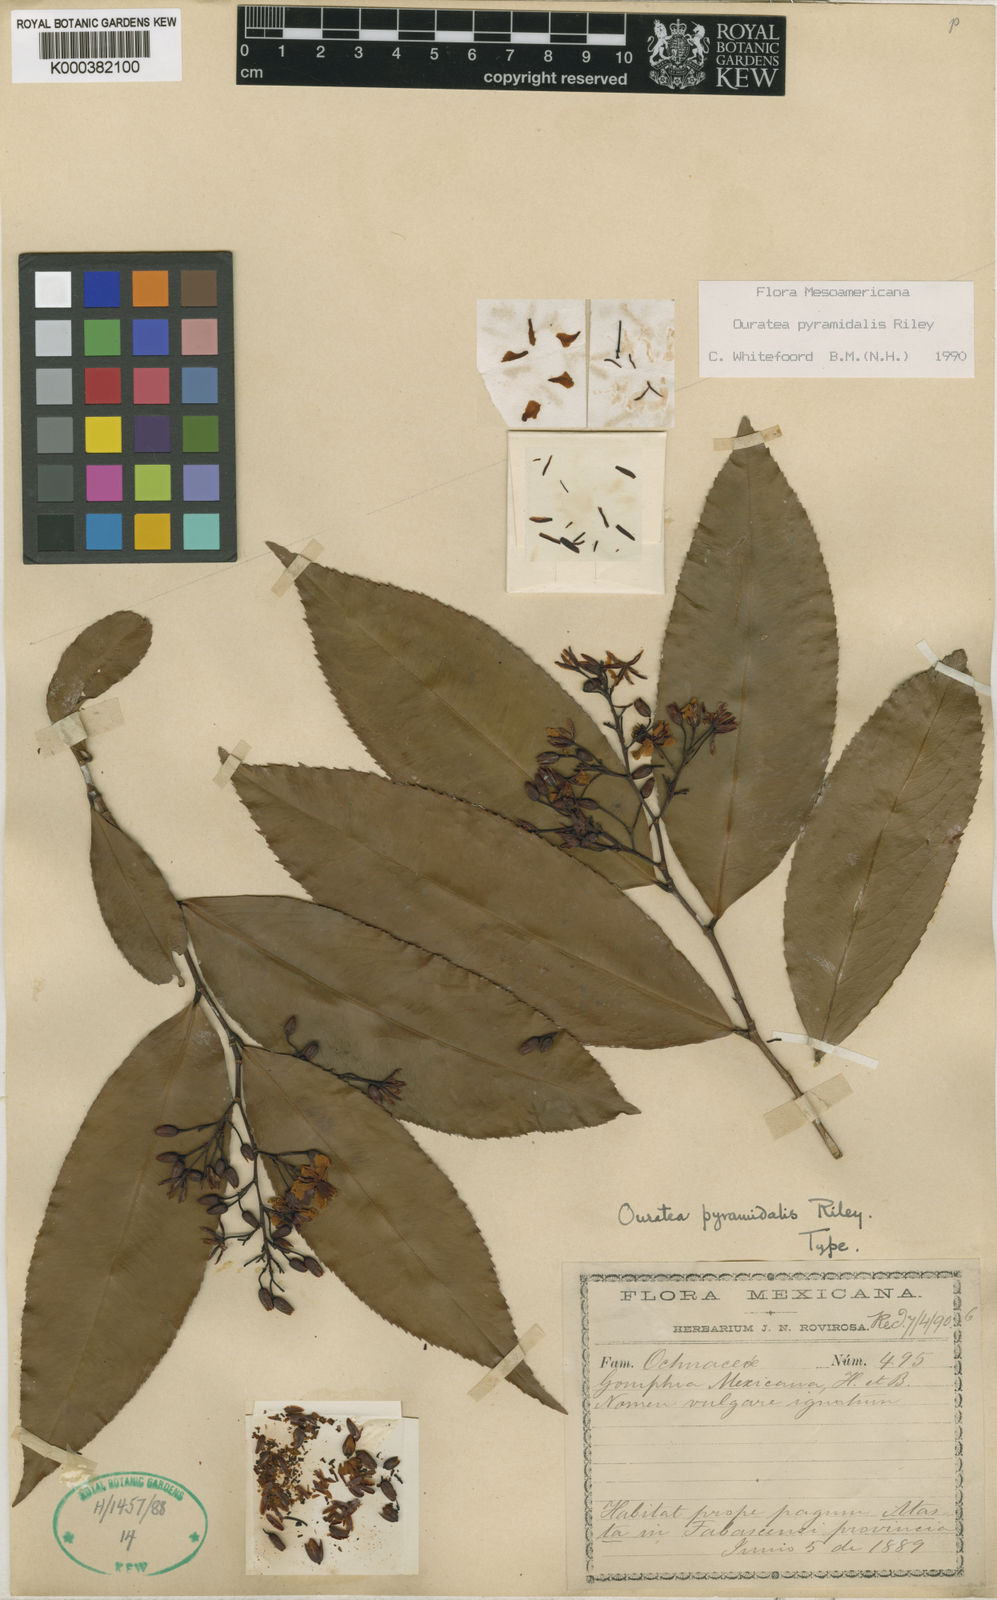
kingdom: Plantae
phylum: Tracheophyta
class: Magnoliopsida
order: Malpighiales
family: Ochnaceae
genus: Ouratea
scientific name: Ouratea pyramidalis
